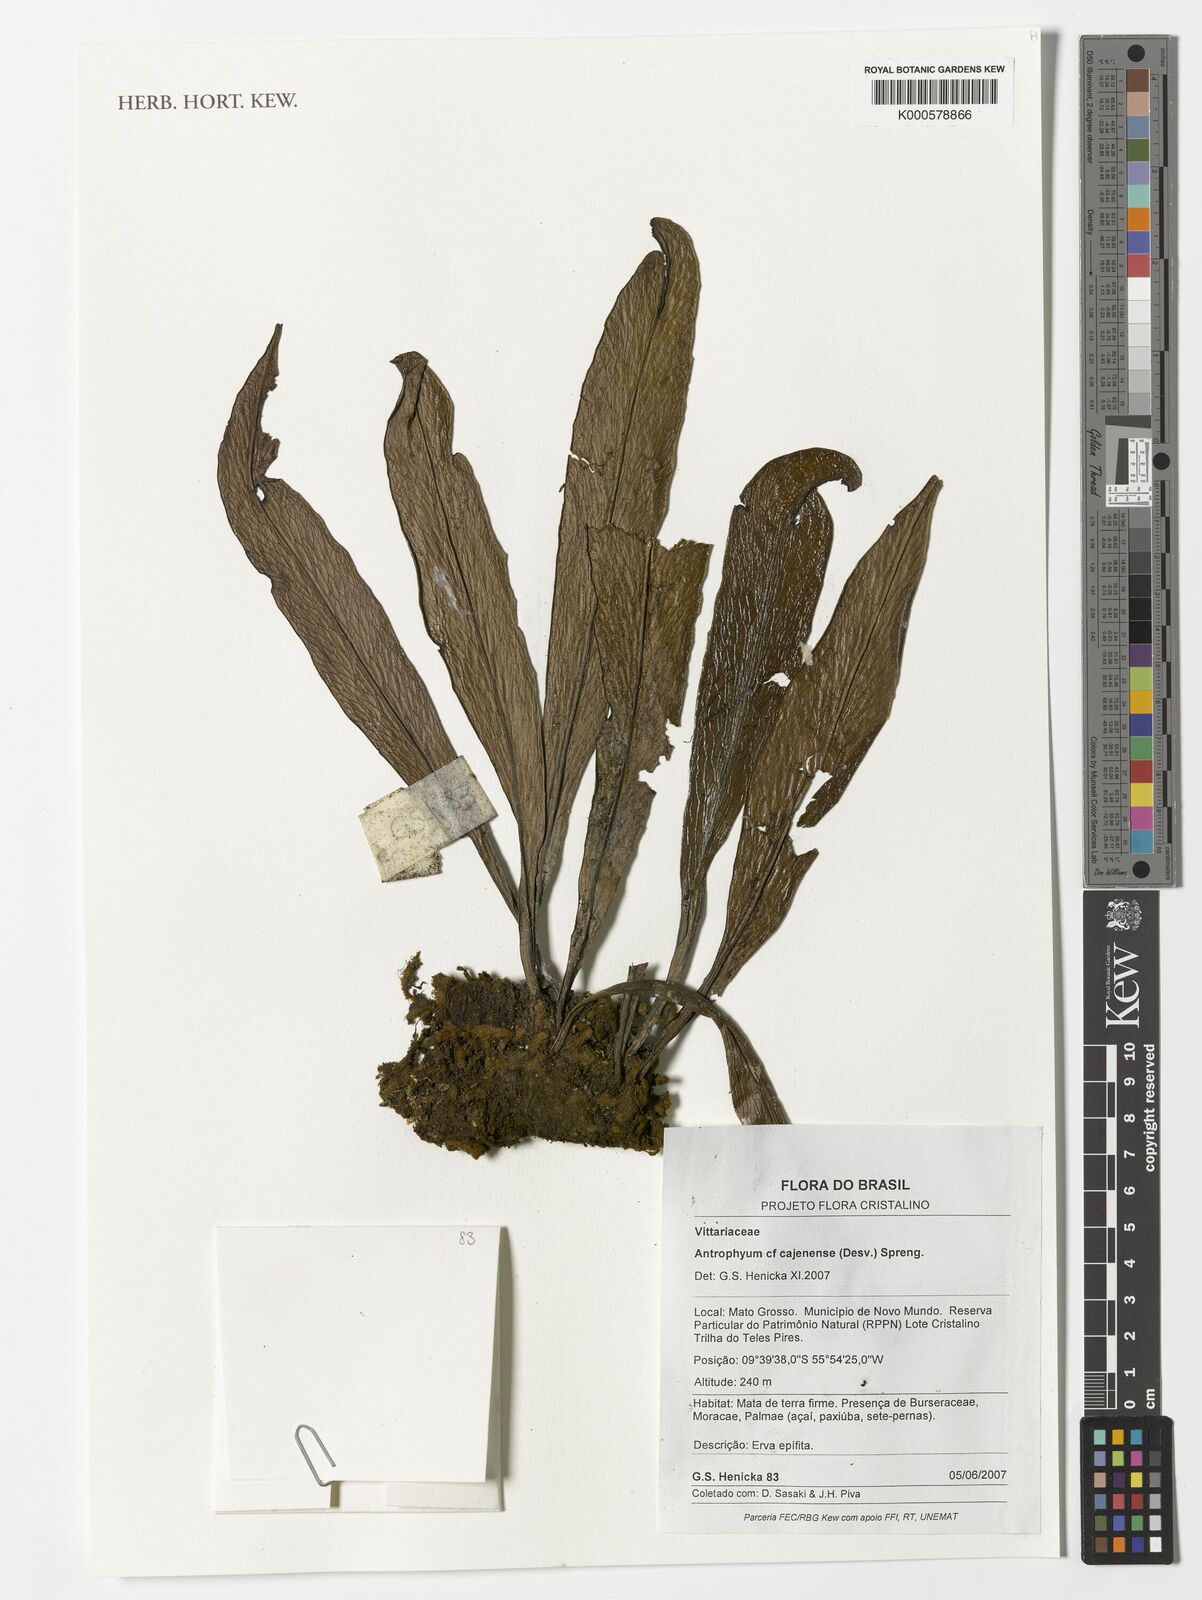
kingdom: Plantae
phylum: Tracheophyta
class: Polypodiopsida
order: Polypodiales
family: Pteridaceae
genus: Polytaenium
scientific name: Polytaenium cajenense
